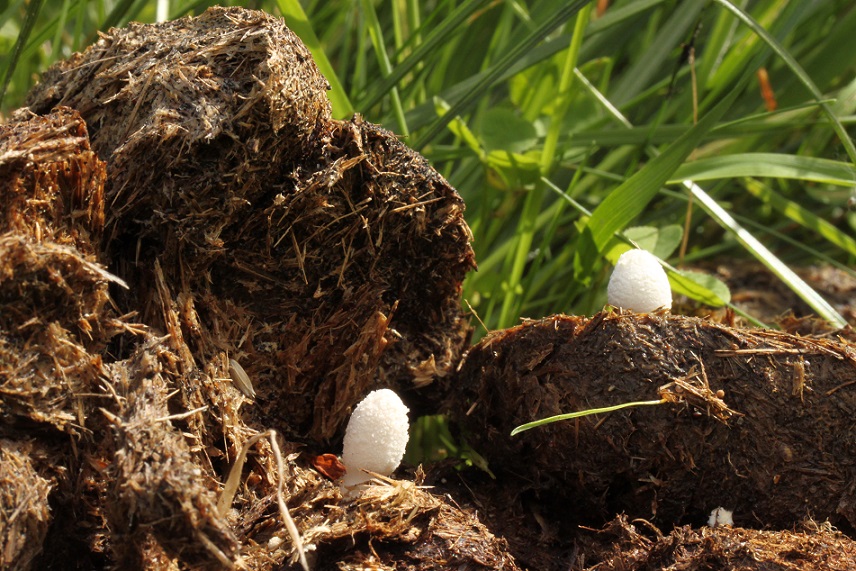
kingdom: Fungi
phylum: Basidiomycota
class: Agaricomycetes
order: Agaricales
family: Psathyrellaceae
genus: Coprinopsis
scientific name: Coprinopsis nivea
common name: snehvid blækhat
